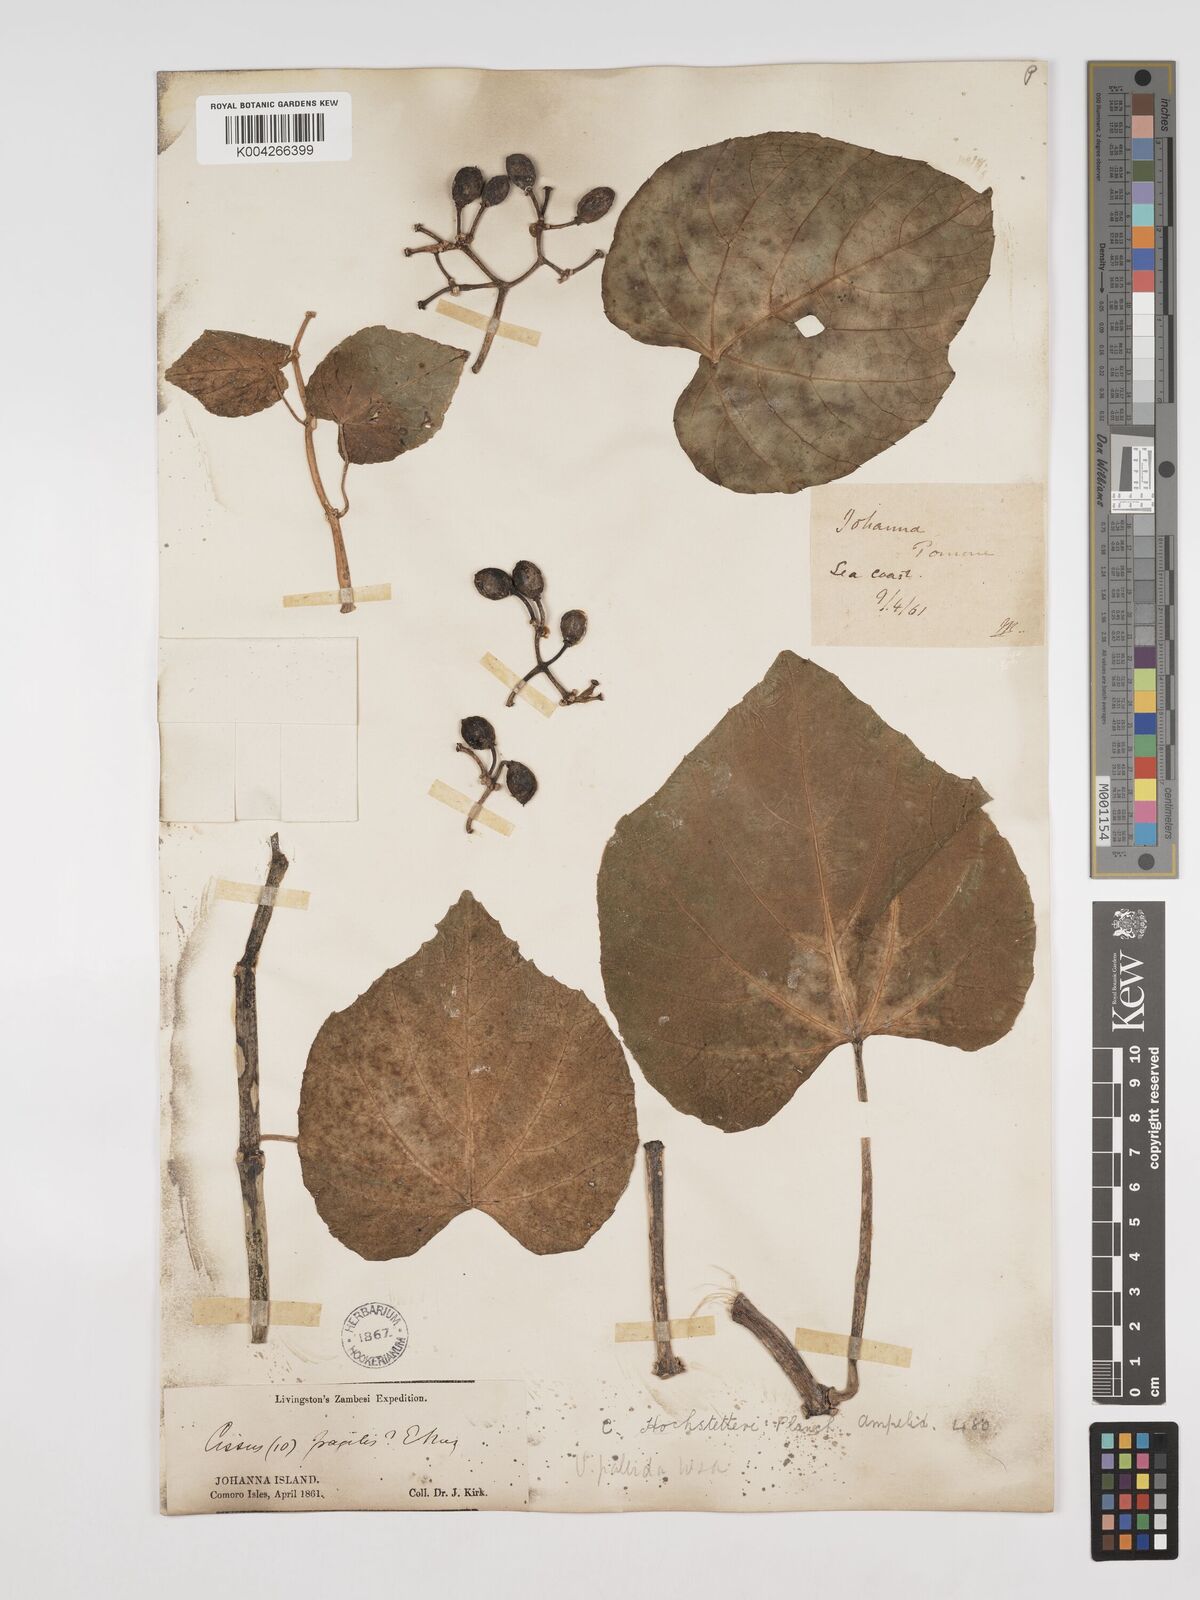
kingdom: Plantae
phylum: Tracheophyta
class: Magnoliopsida
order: Vitales
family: Vitaceae
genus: Cissus
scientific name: Cissus
